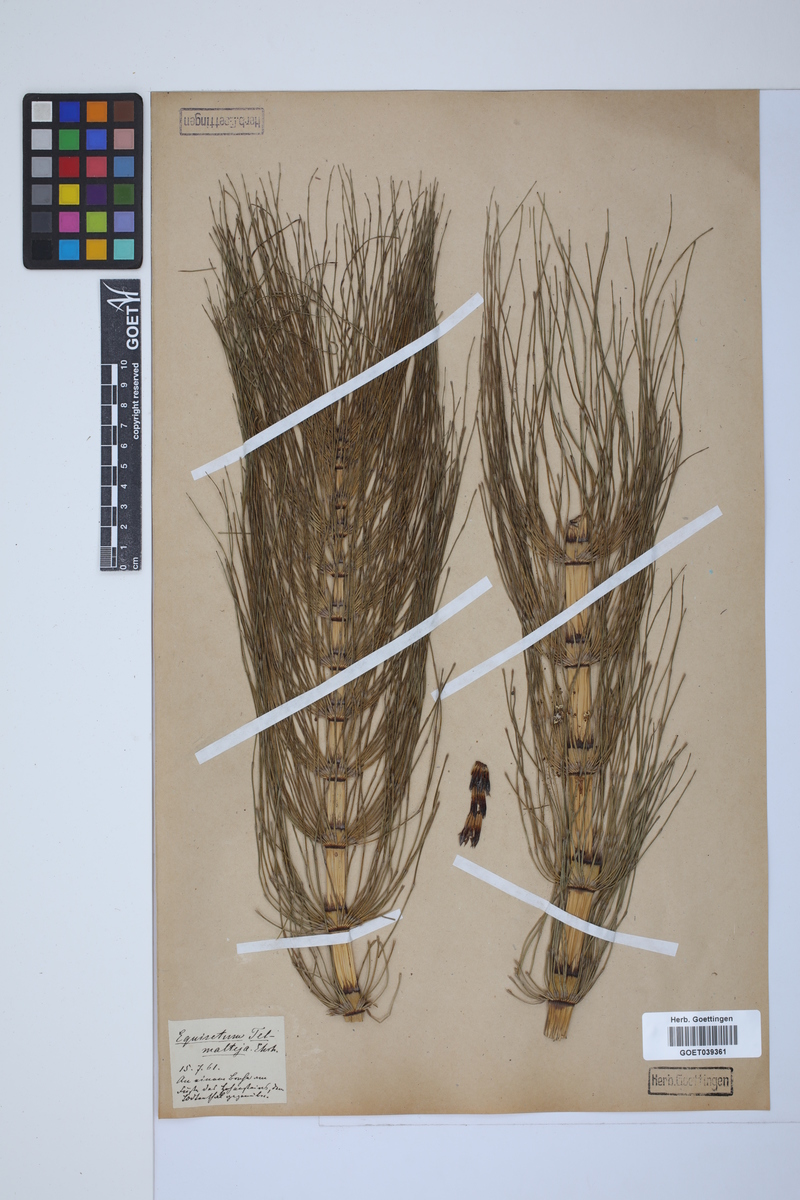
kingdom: Plantae
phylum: Tracheophyta
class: Polypodiopsida
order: Equisetales
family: Equisetaceae
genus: Equisetum
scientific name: Equisetum telmateia
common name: Great horsetail
